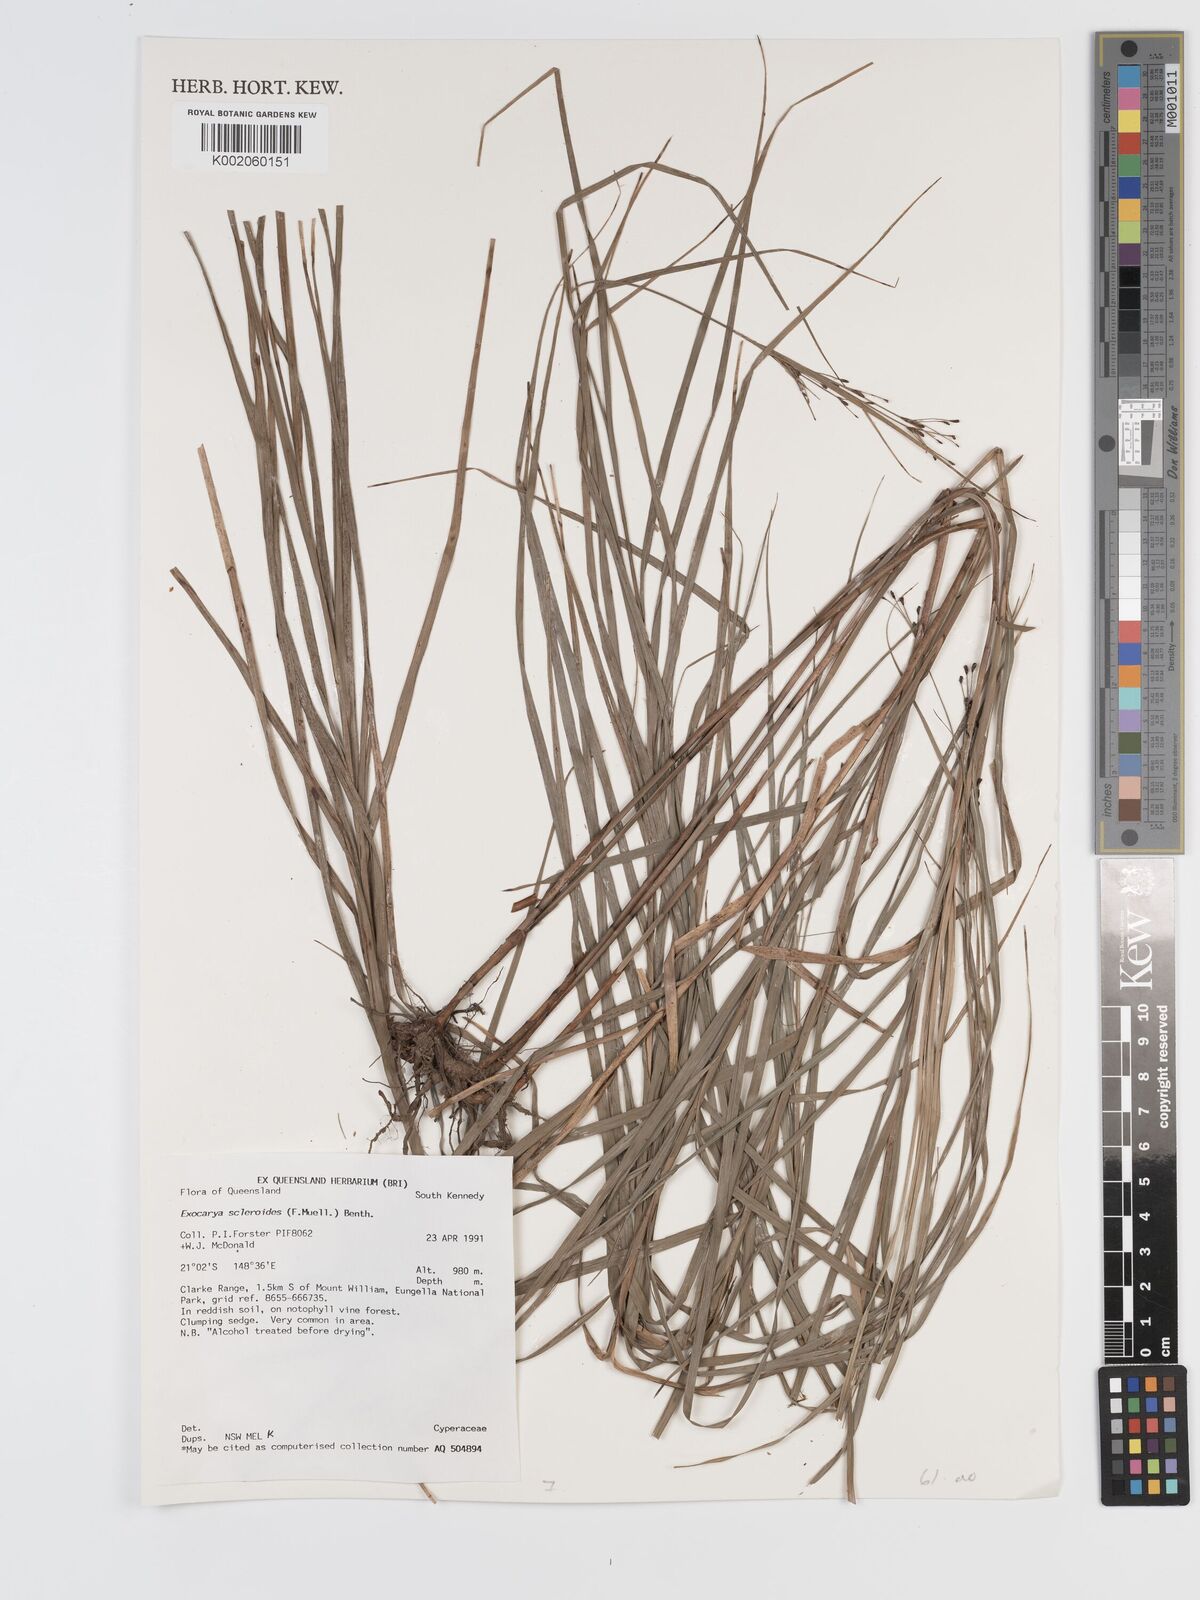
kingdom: Plantae
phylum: Tracheophyta
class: Liliopsida
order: Poales
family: Cyperaceae
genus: Exocarya
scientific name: Exocarya sclerioides
